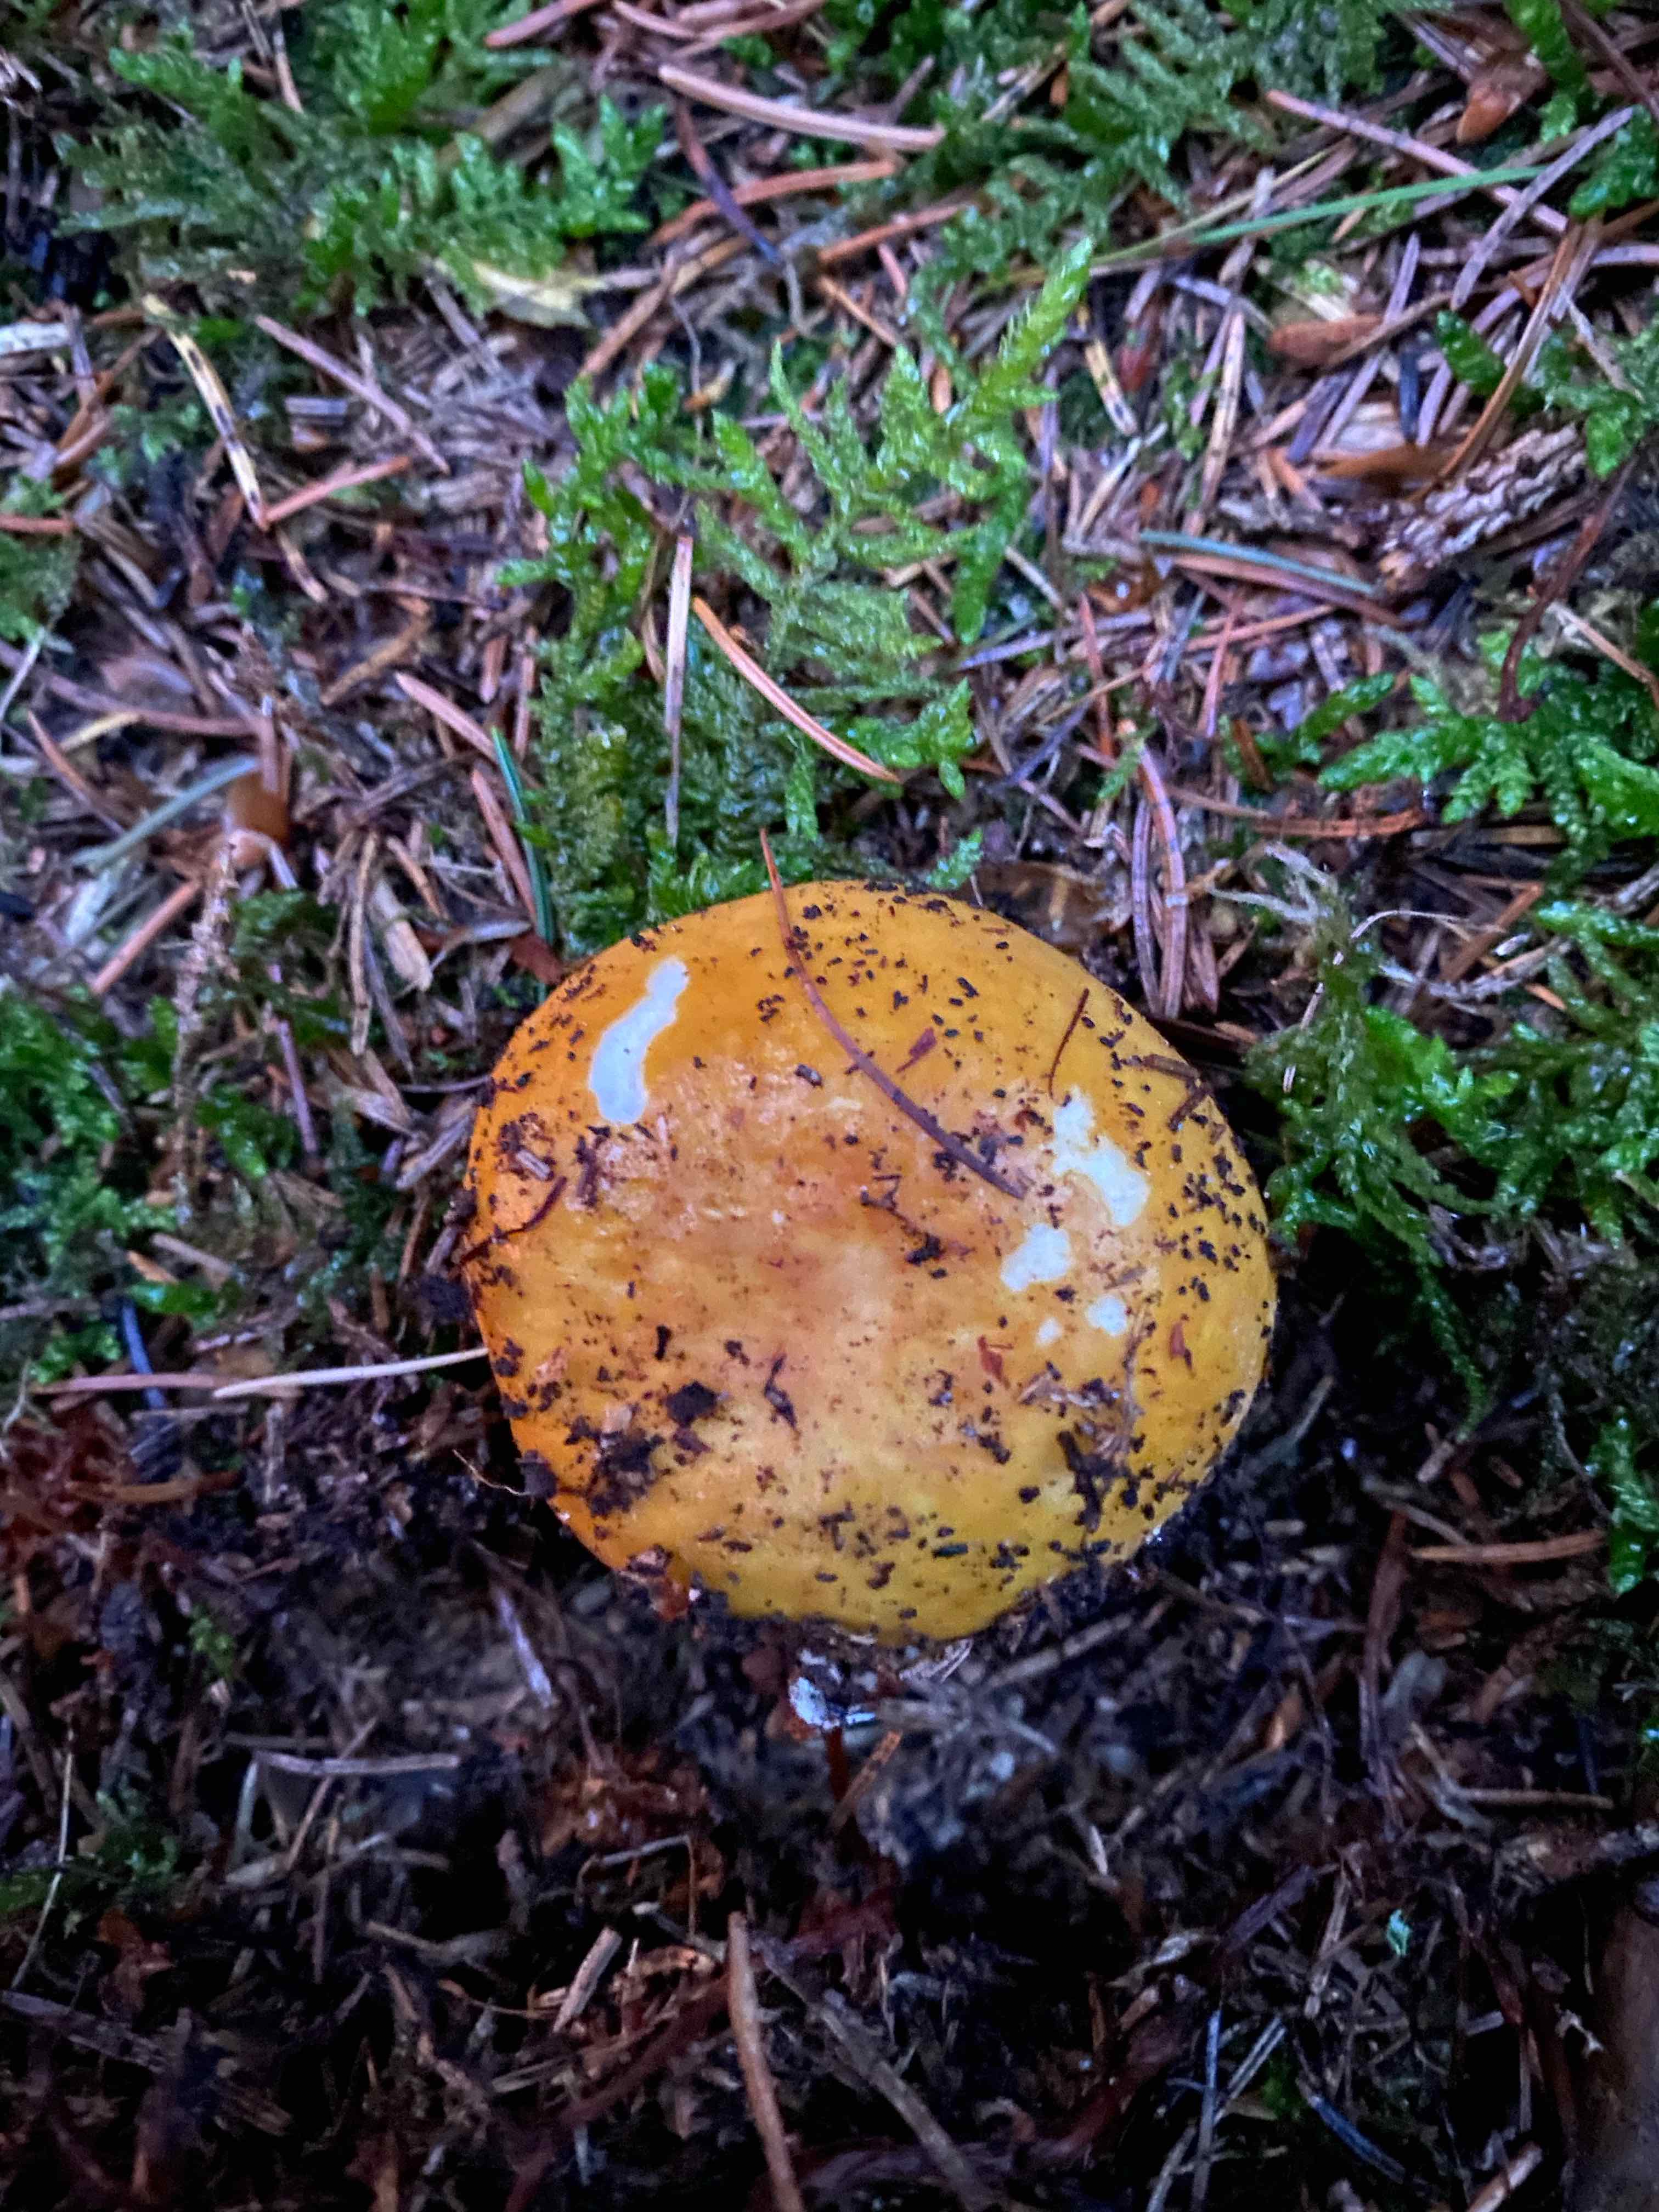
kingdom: Fungi
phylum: Basidiomycota
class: Agaricomycetes
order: Russulales
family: Russulaceae
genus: Russula
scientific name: Russula ochroleuca
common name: okkergul skørhat
